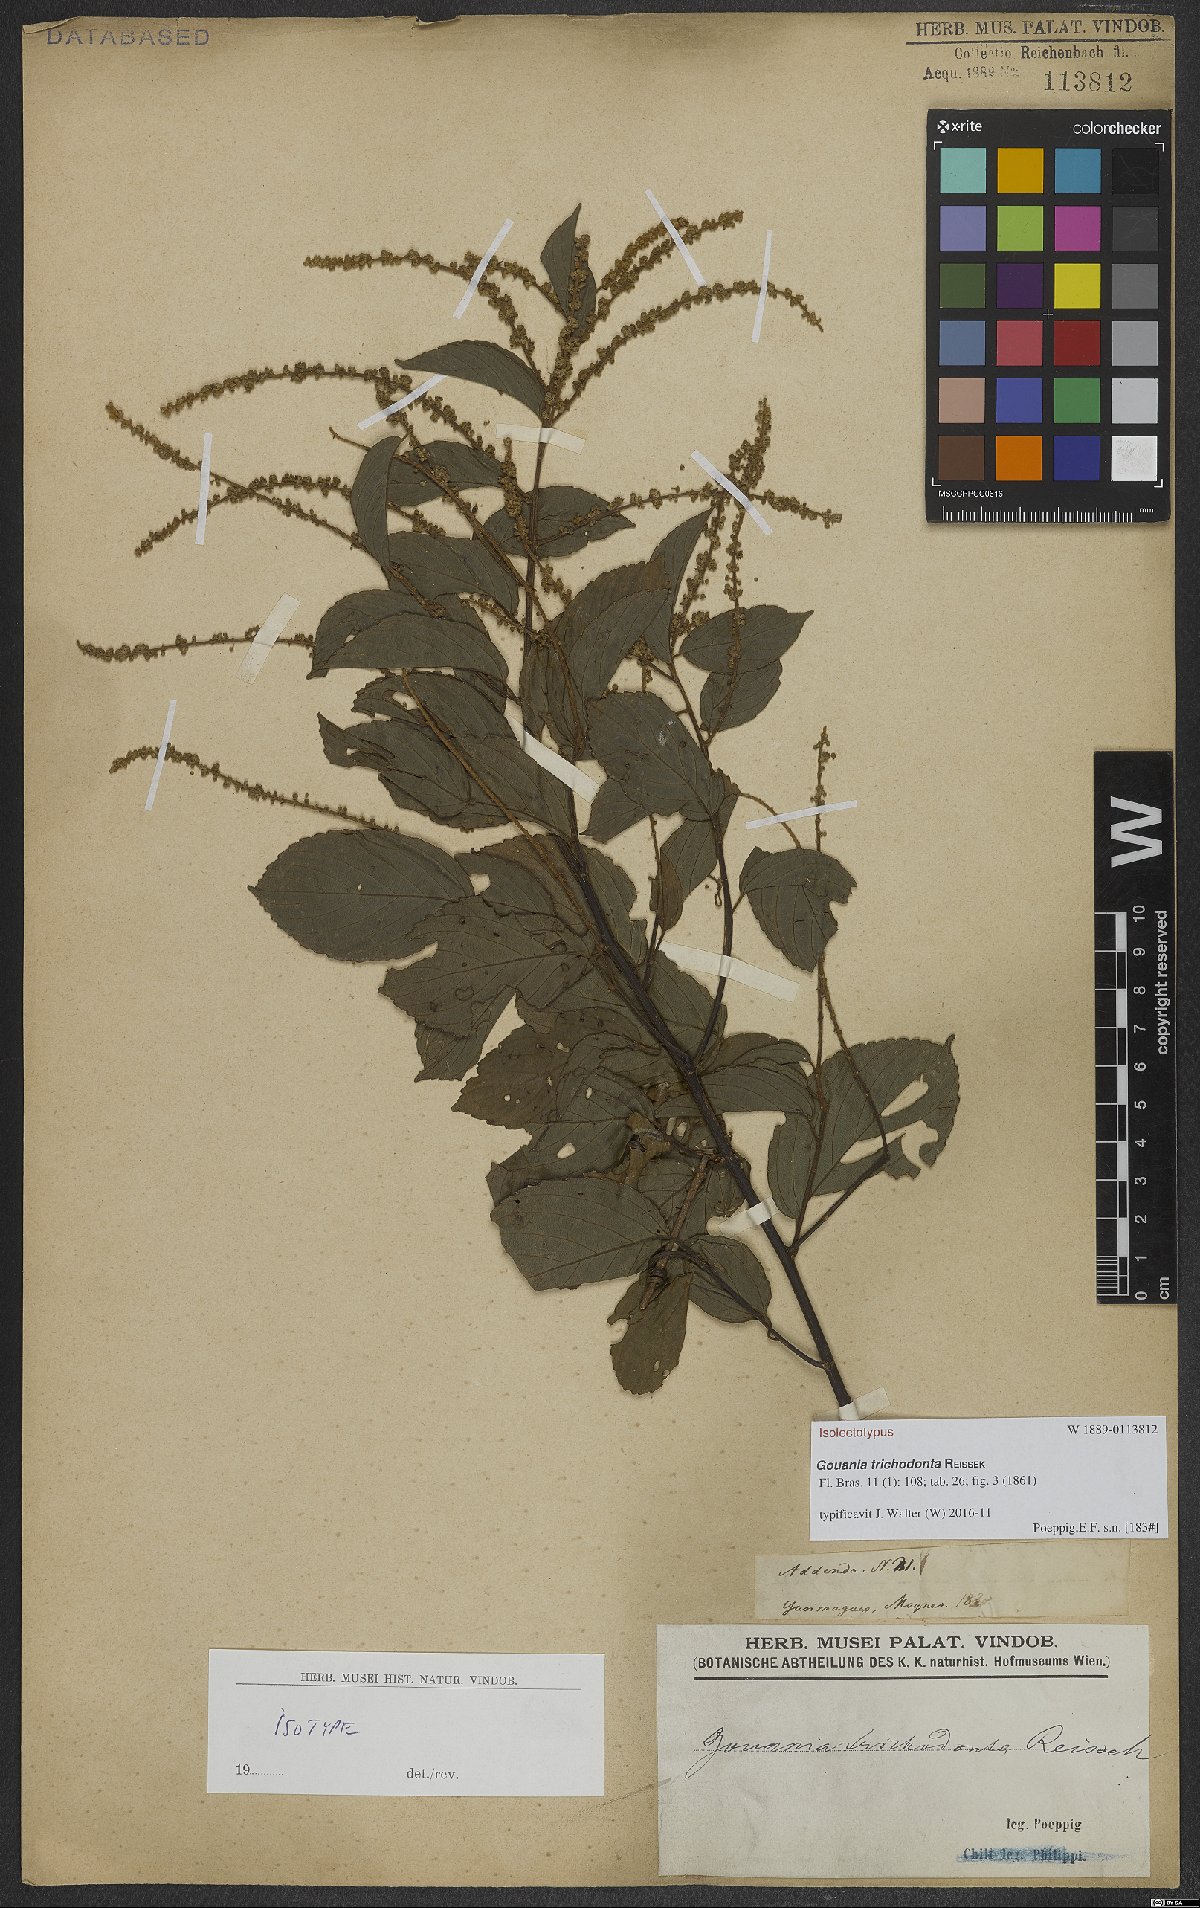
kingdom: Plantae
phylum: Tracheophyta
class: Magnoliopsida
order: Rosales
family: Rhamnaceae
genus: Gouania
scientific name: Gouania trichodonta
